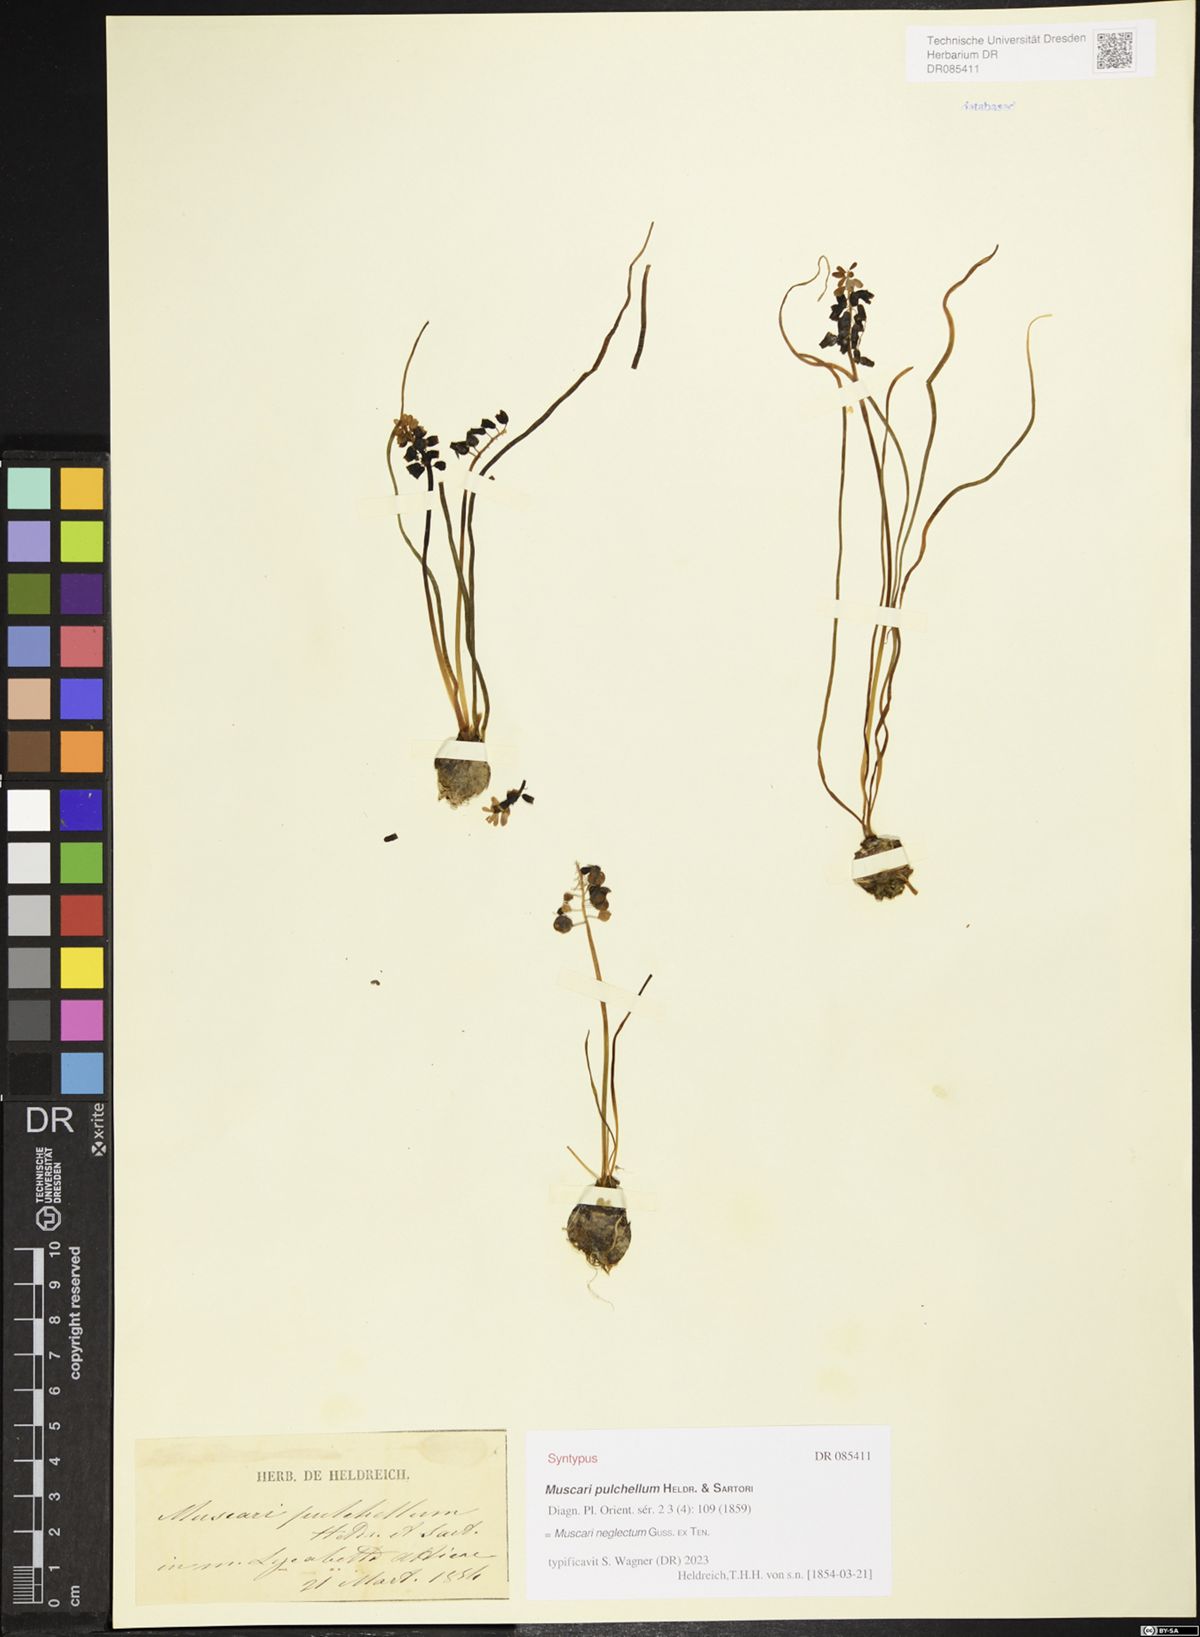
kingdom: Plantae
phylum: Tracheophyta
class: Liliopsida
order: Asparagales
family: Asparagaceae
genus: Muscari
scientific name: Muscari pulchellum
